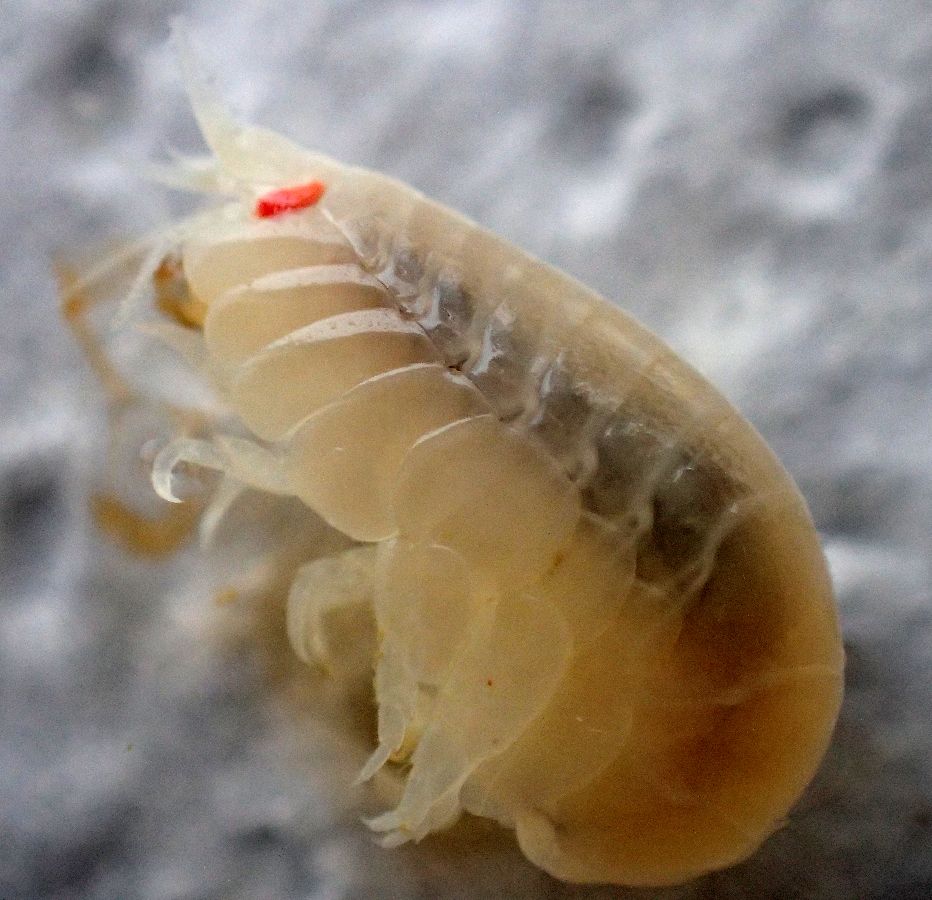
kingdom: Animalia
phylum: Arthropoda
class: Malacostraca
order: Amphipoda
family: Uristidae
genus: Menigrates
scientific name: Menigrates obtusifrons
